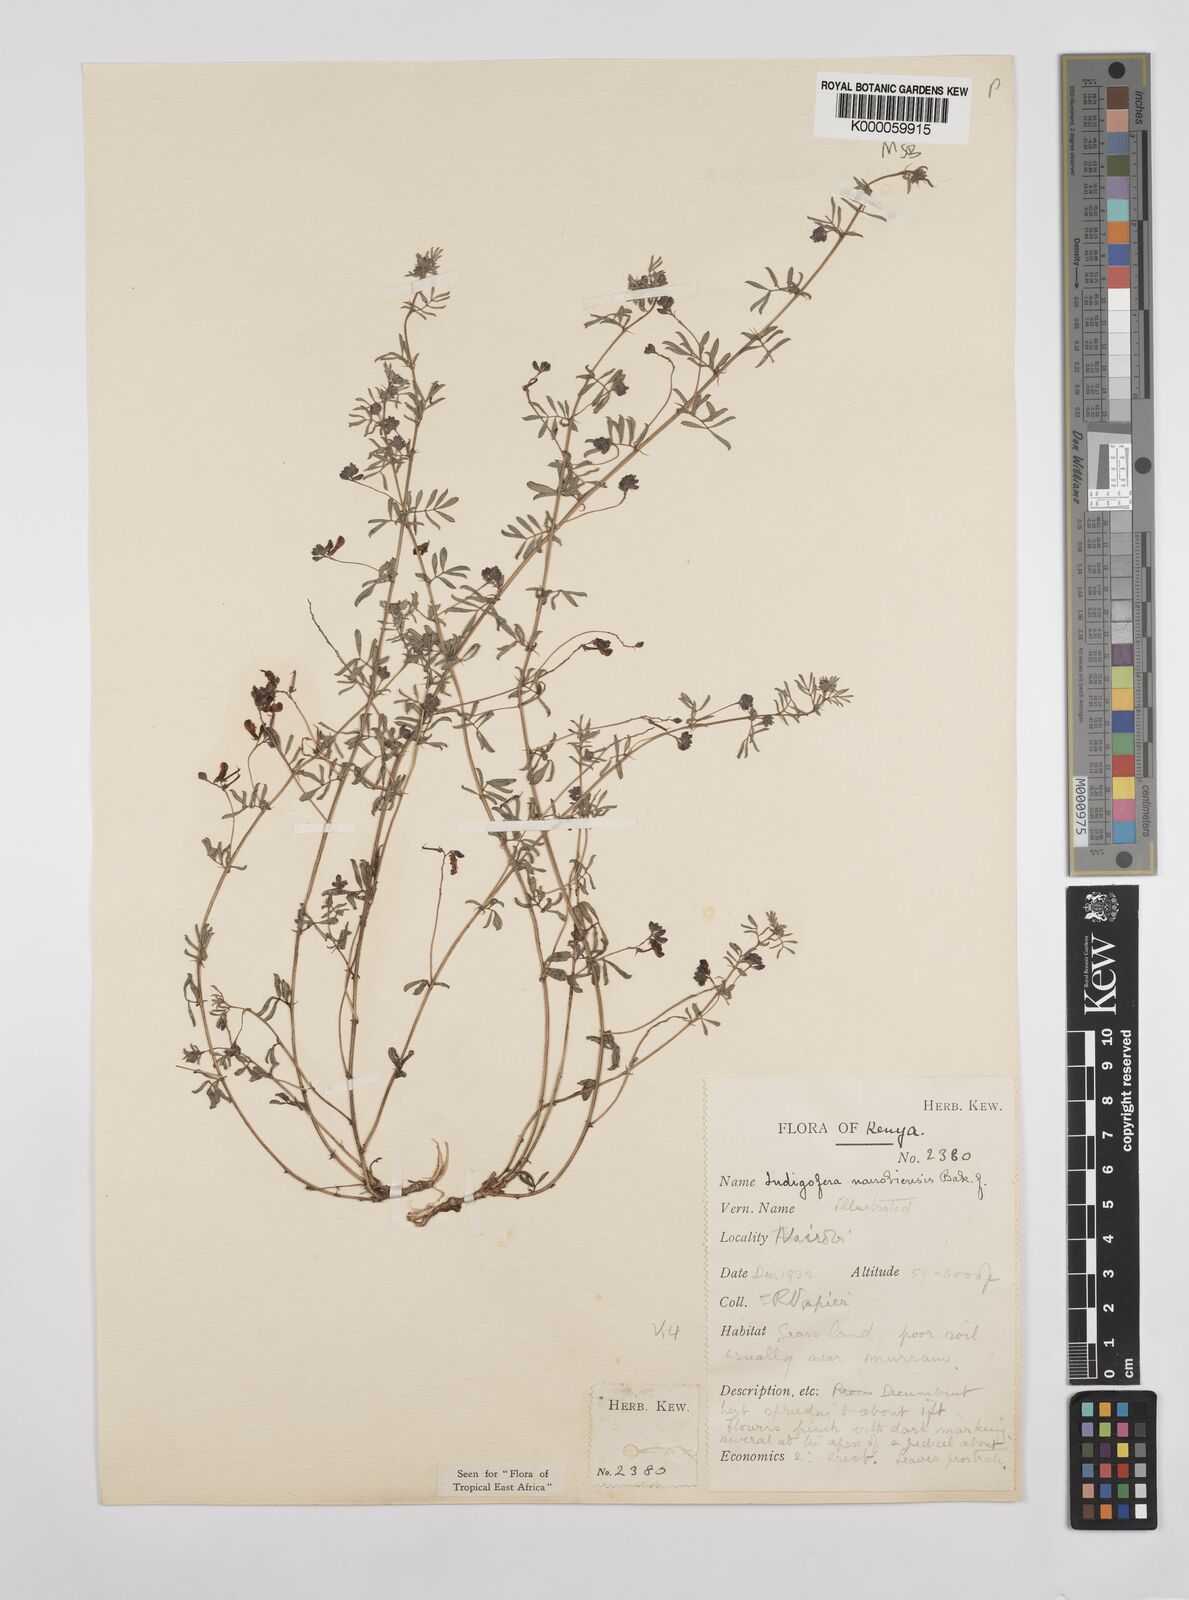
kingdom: Plantae
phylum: Tracheophyta
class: Magnoliopsida
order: Fabales
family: Fabaceae
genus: Indigofera
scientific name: Indigofera nairobiensis
